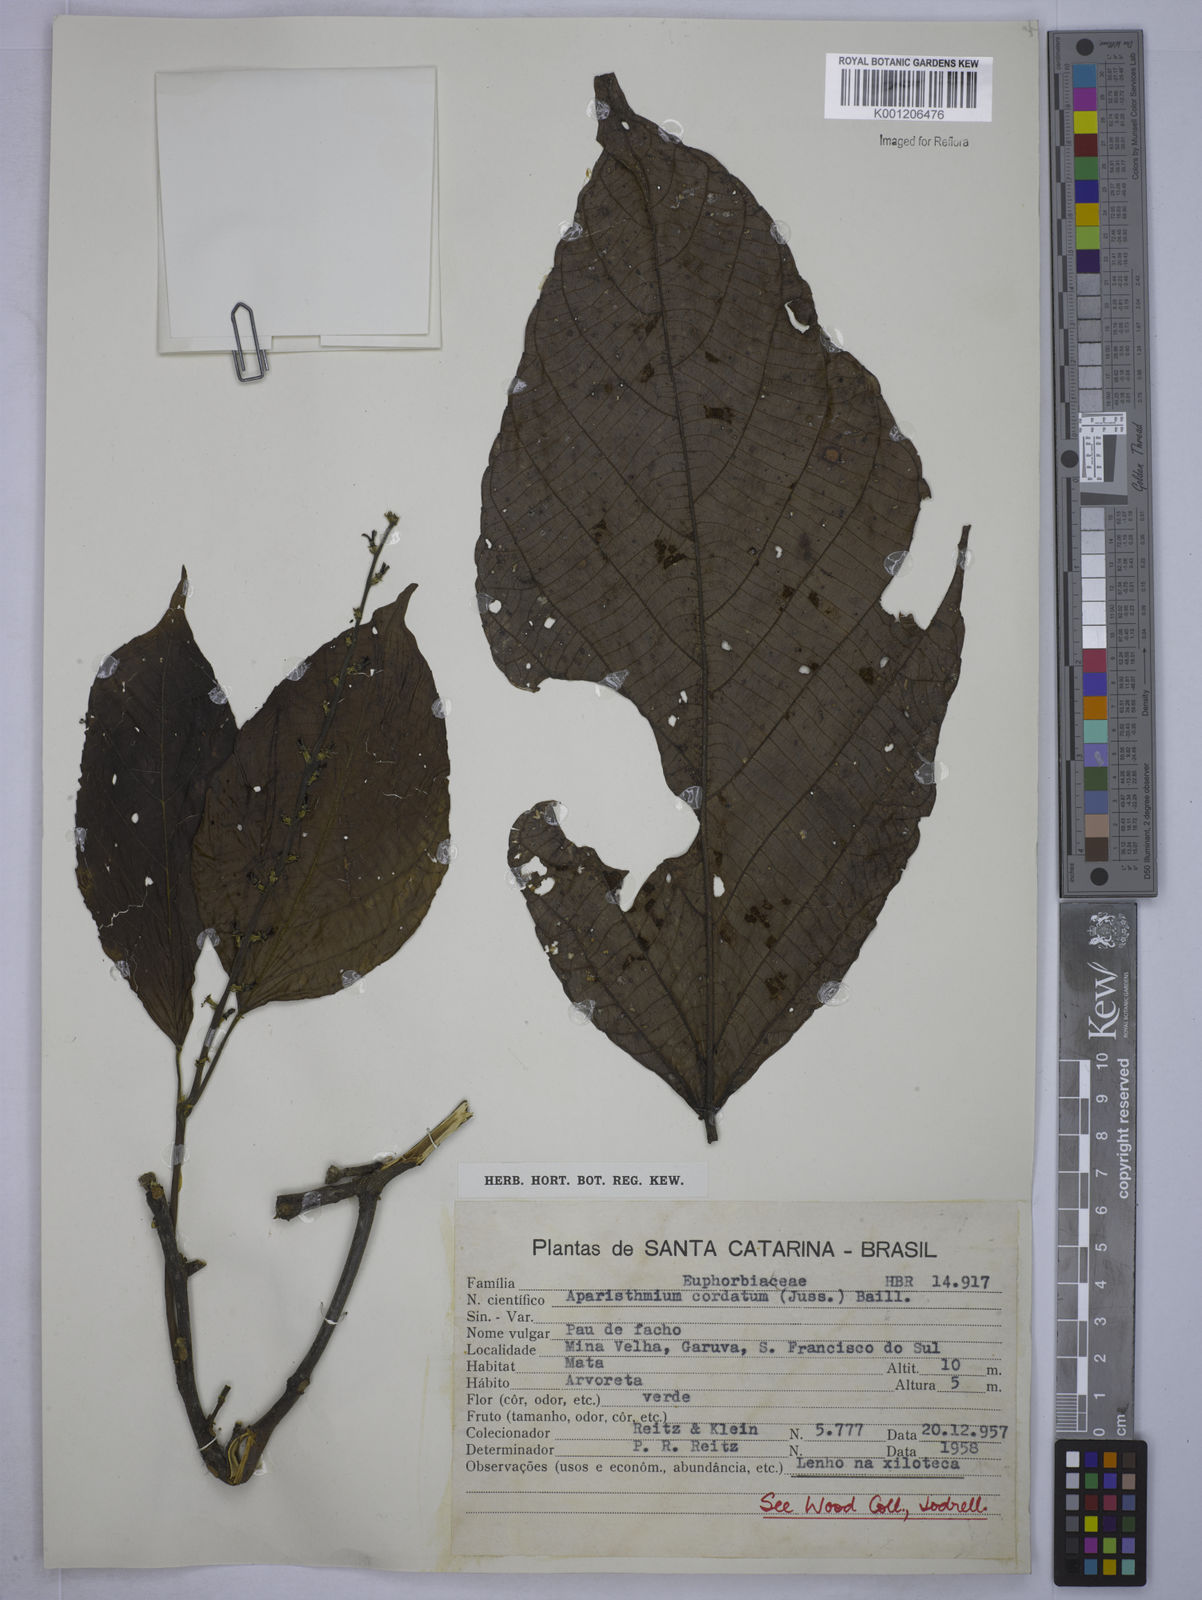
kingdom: Plantae
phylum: Tracheophyta
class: Magnoliopsida
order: Malpighiales
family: Euphorbiaceae
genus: Aparisthmium
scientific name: Aparisthmium cordatum
